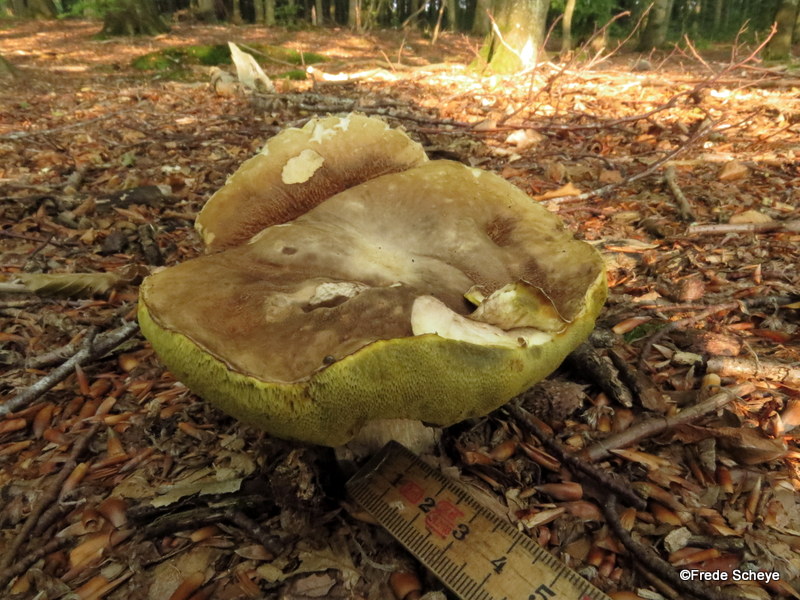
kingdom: Fungi
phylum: Basidiomycota
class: Agaricomycetes
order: Boletales
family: Boletaceae
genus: Boletus
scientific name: Boletus reticulatus
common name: sommer-rørhat
